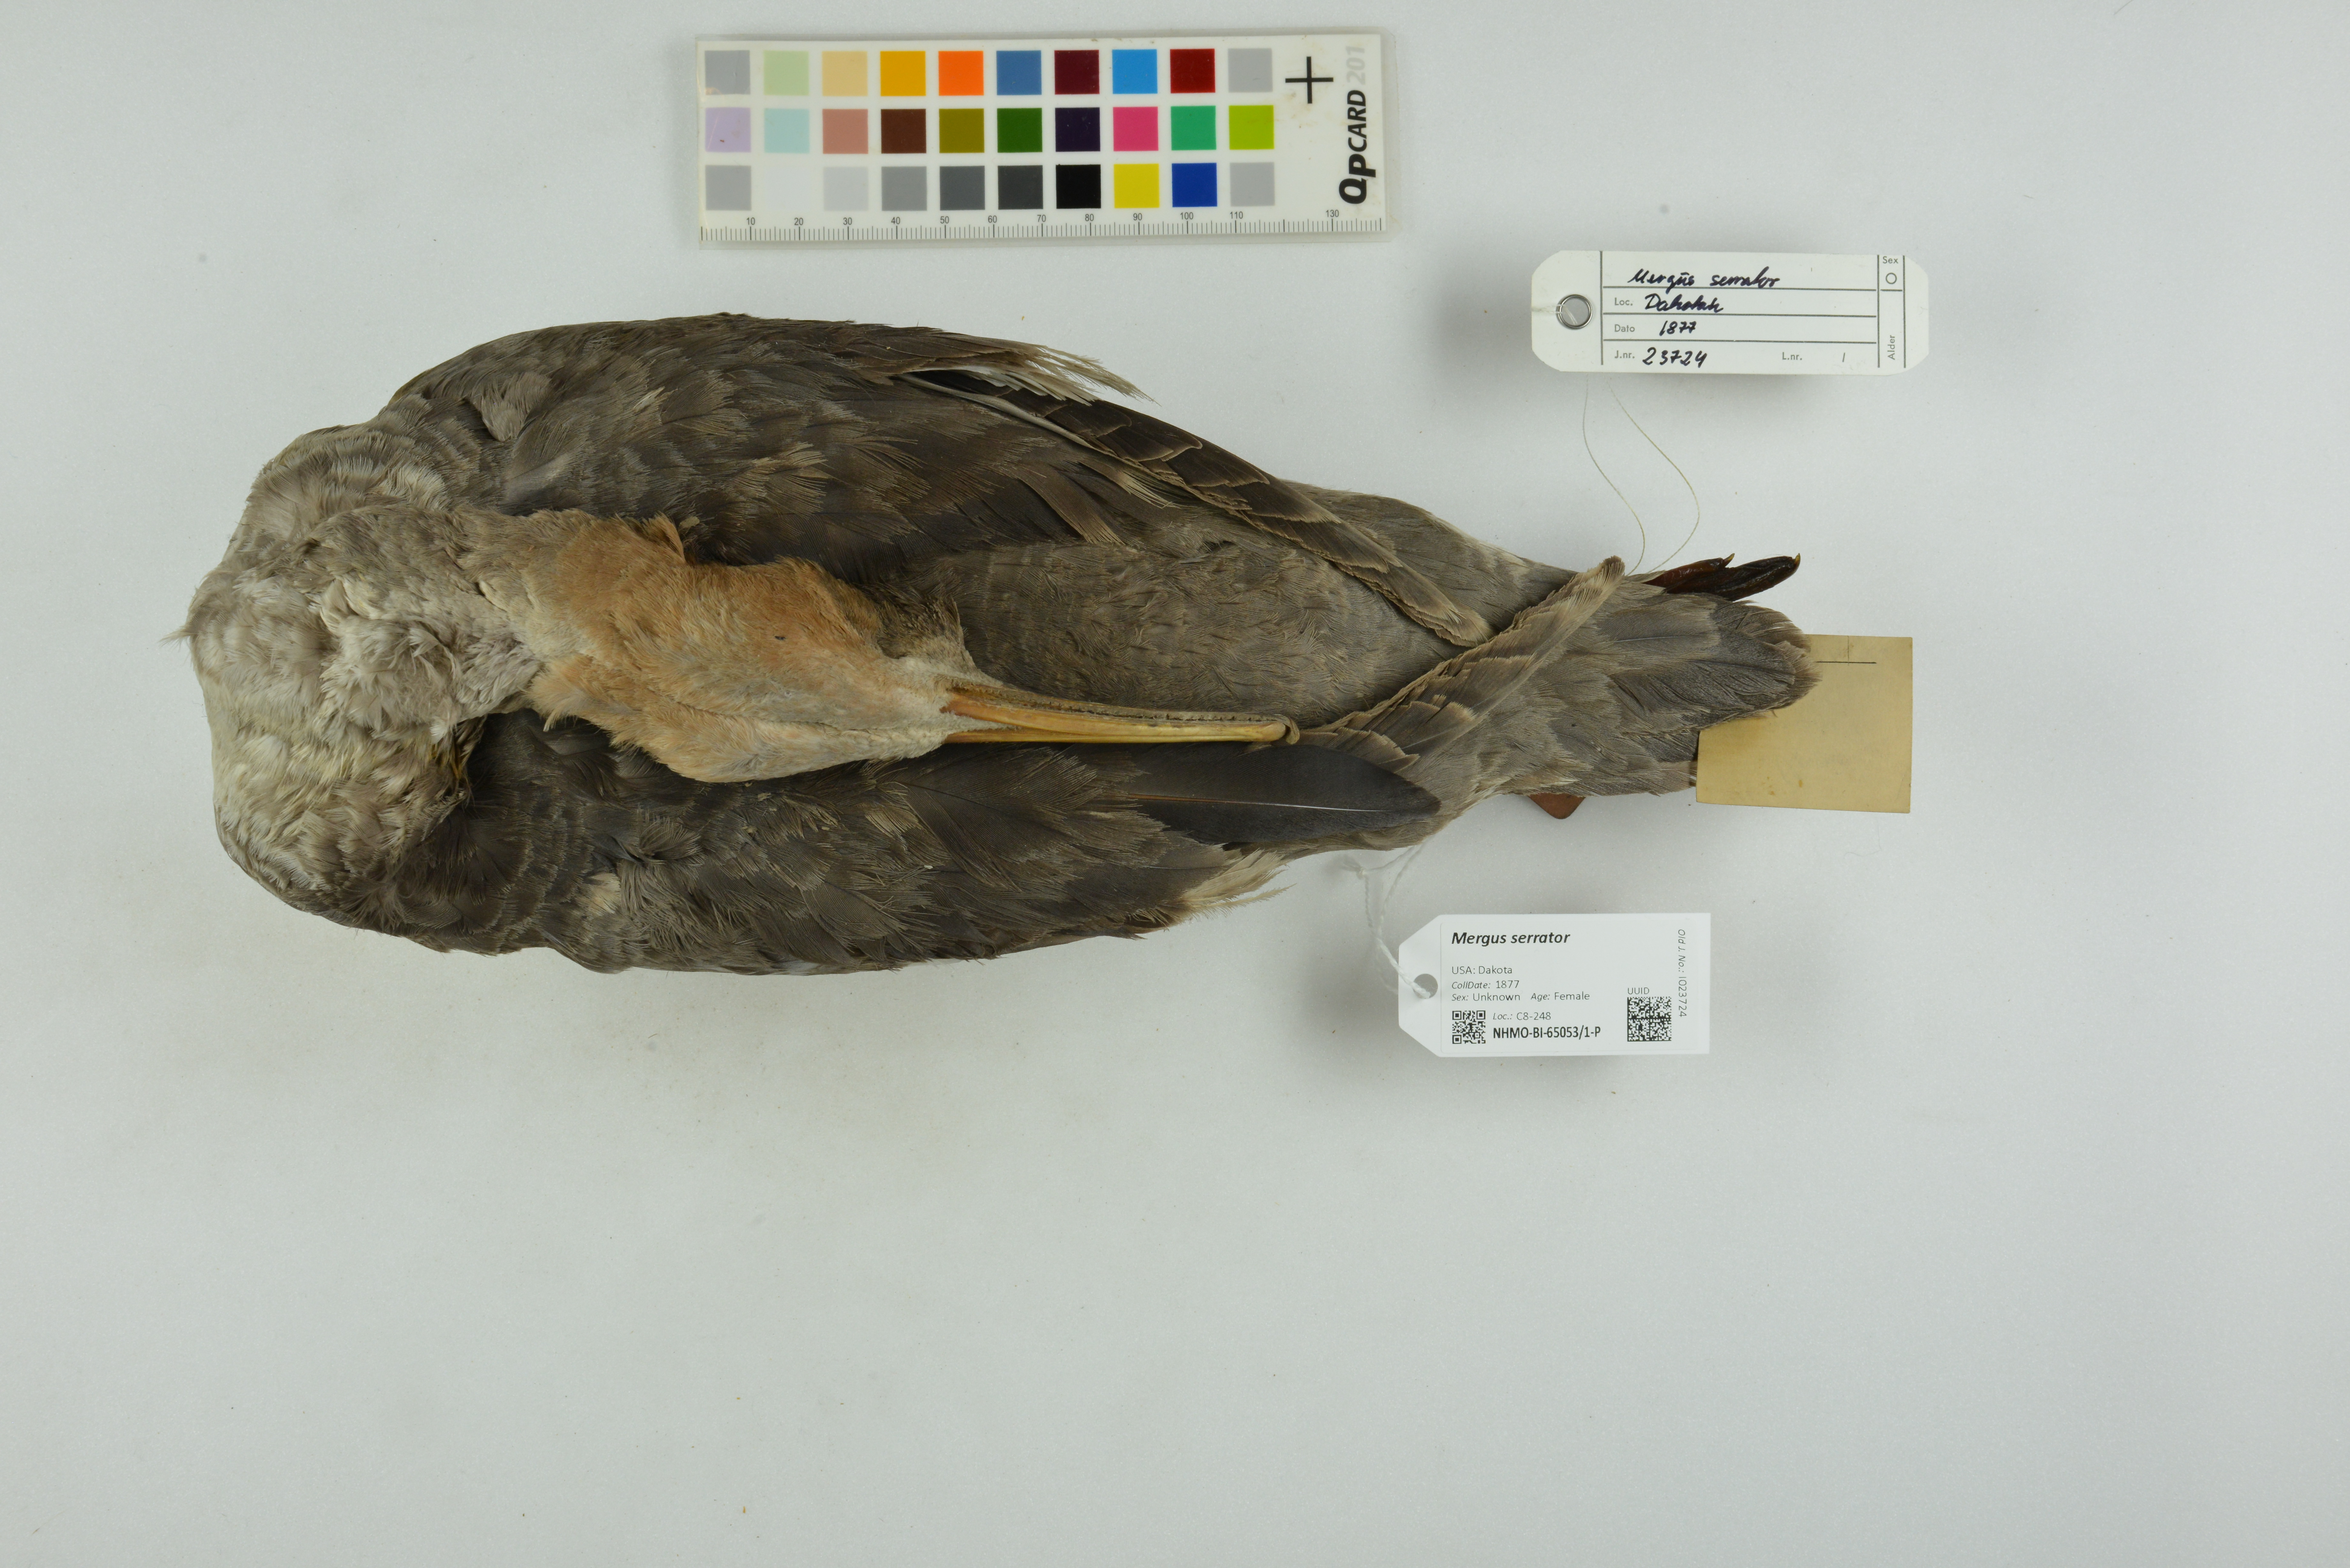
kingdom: Animalia
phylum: Chordata
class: Aves
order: Anseriformes
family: Anatidae
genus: Mergus
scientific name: Mergus serrator
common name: Red-breasted merganser
